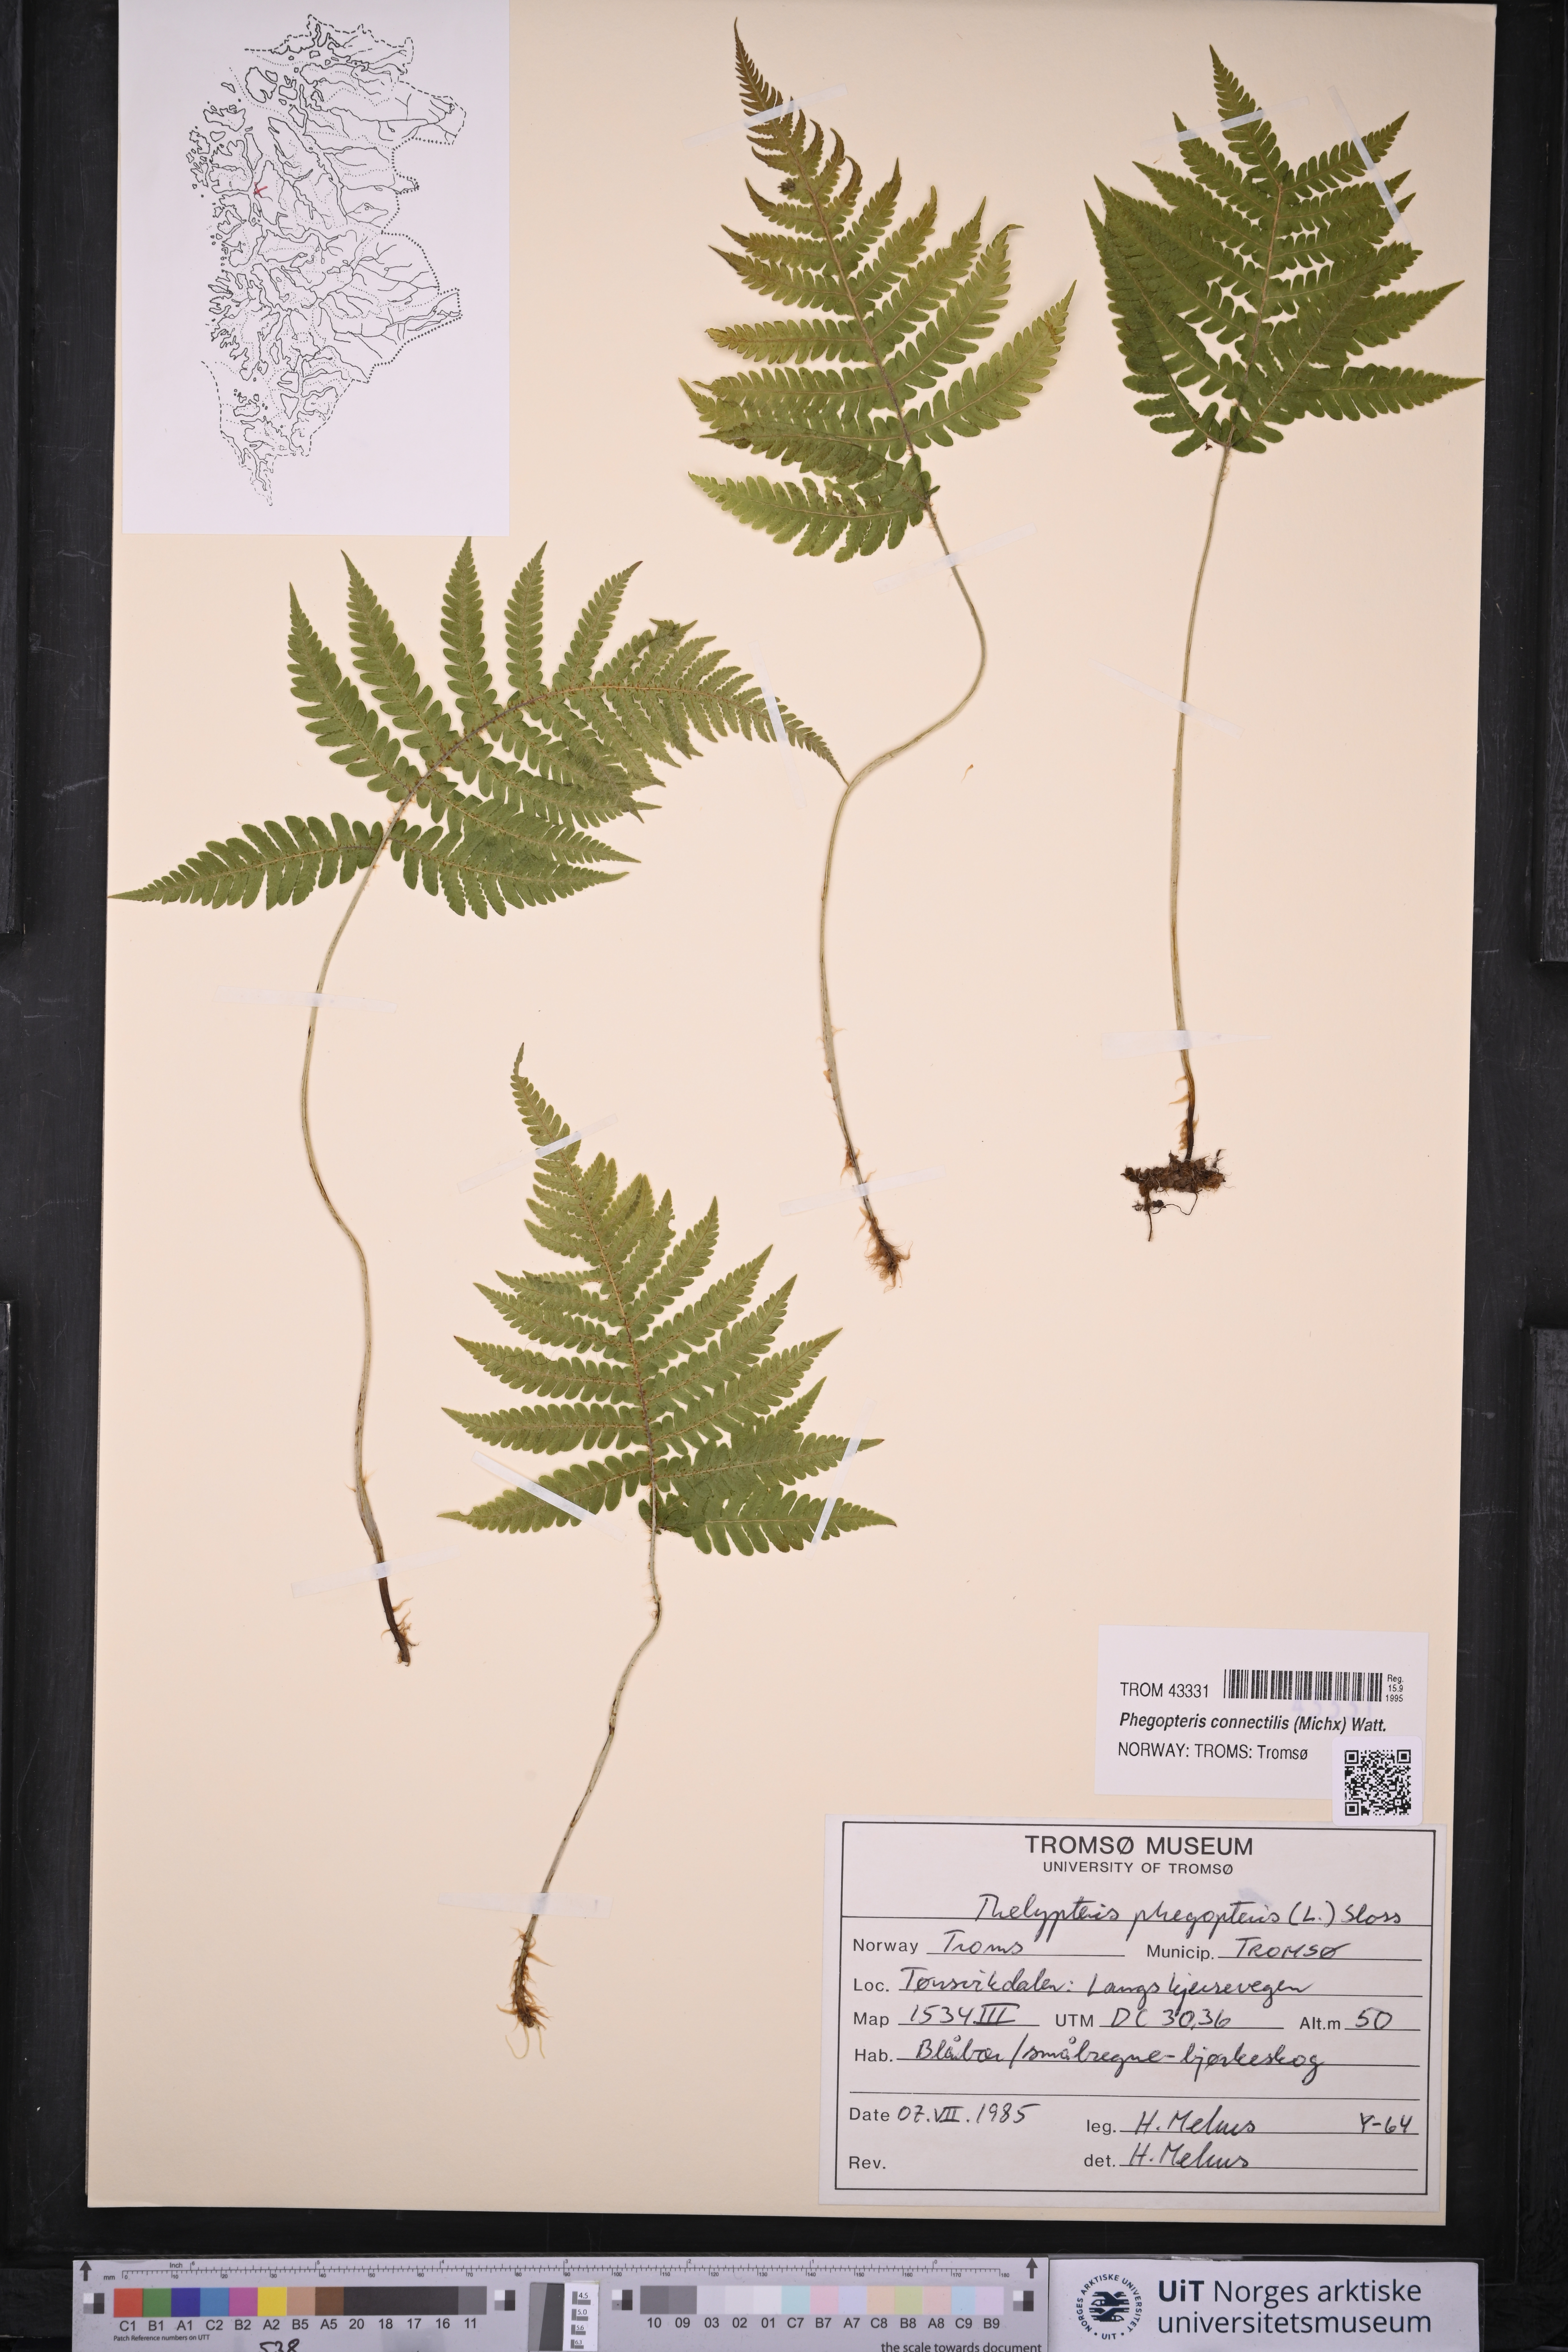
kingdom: Plantae
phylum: Tracheophyta
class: Polypodiopsida
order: Polypodiales
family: Thelypteridaceae
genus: Phegopteris
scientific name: Phegopteris connectilis
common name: Beech fern
